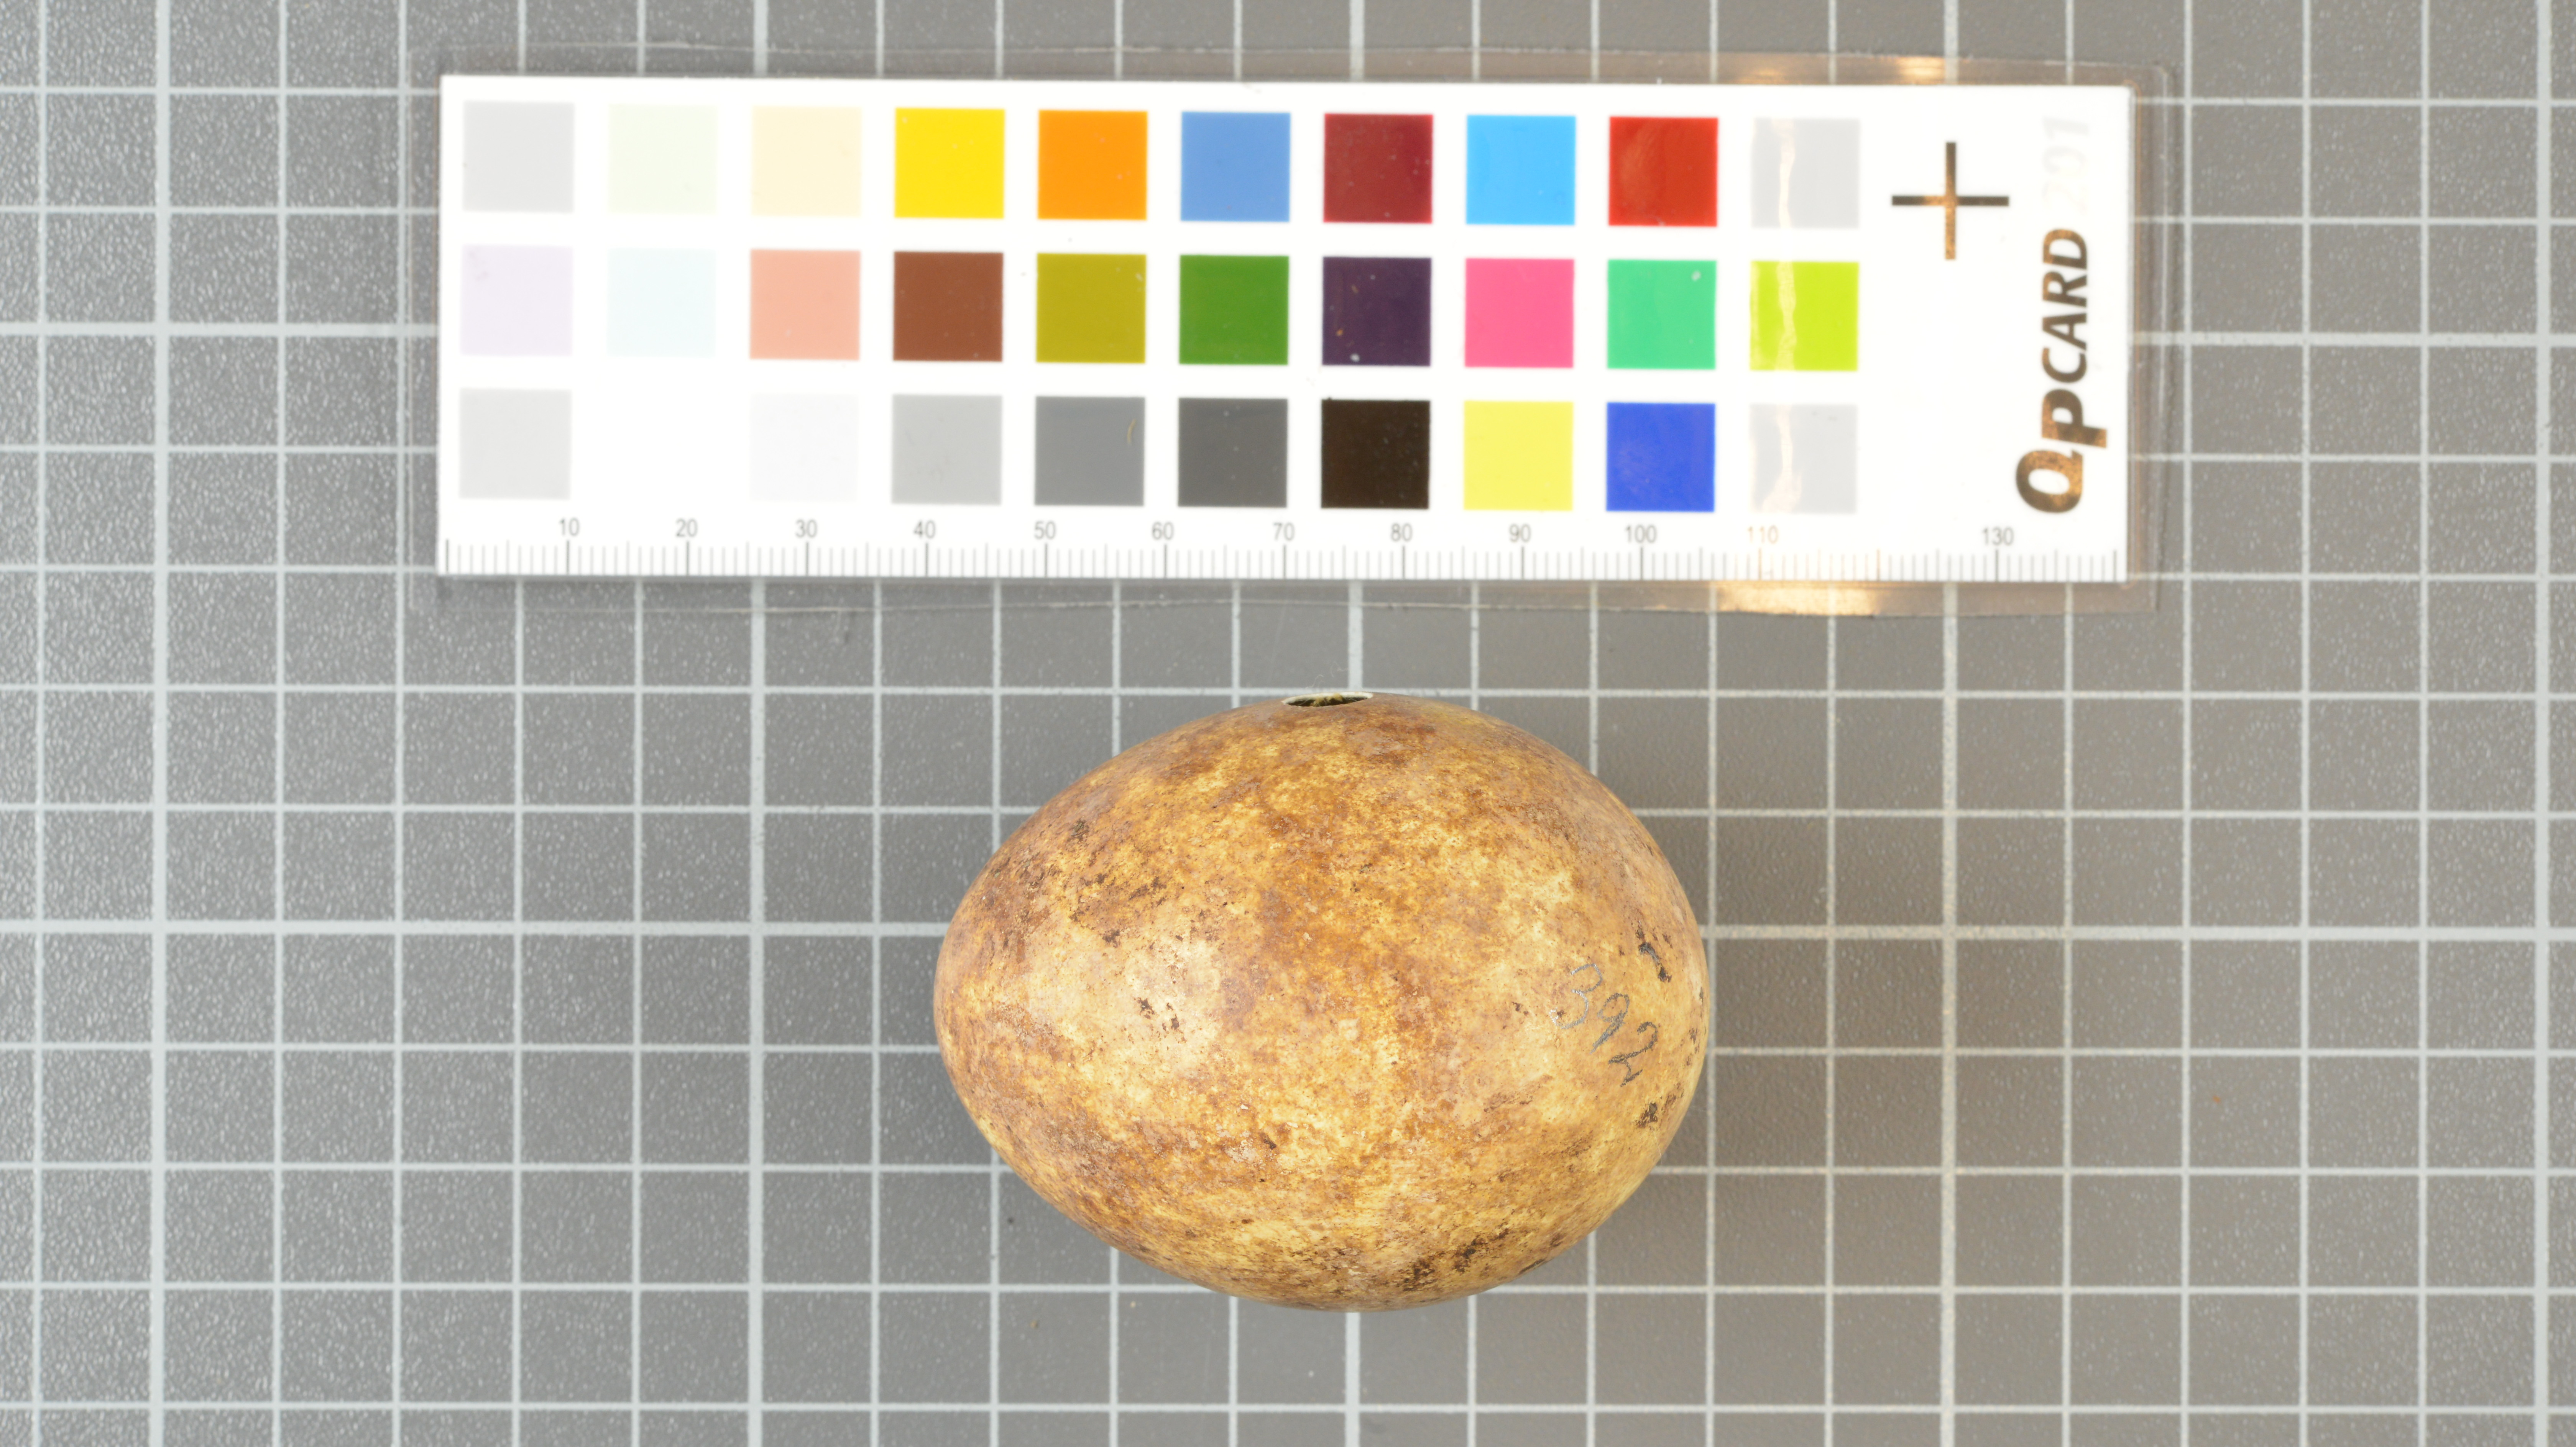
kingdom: Animalia
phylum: Chordata
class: Aves
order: Sphenisciformes
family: Spheniscidae
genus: Eudyptes
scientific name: Eudyptes moseleyi
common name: Northern rockhopper penguin
